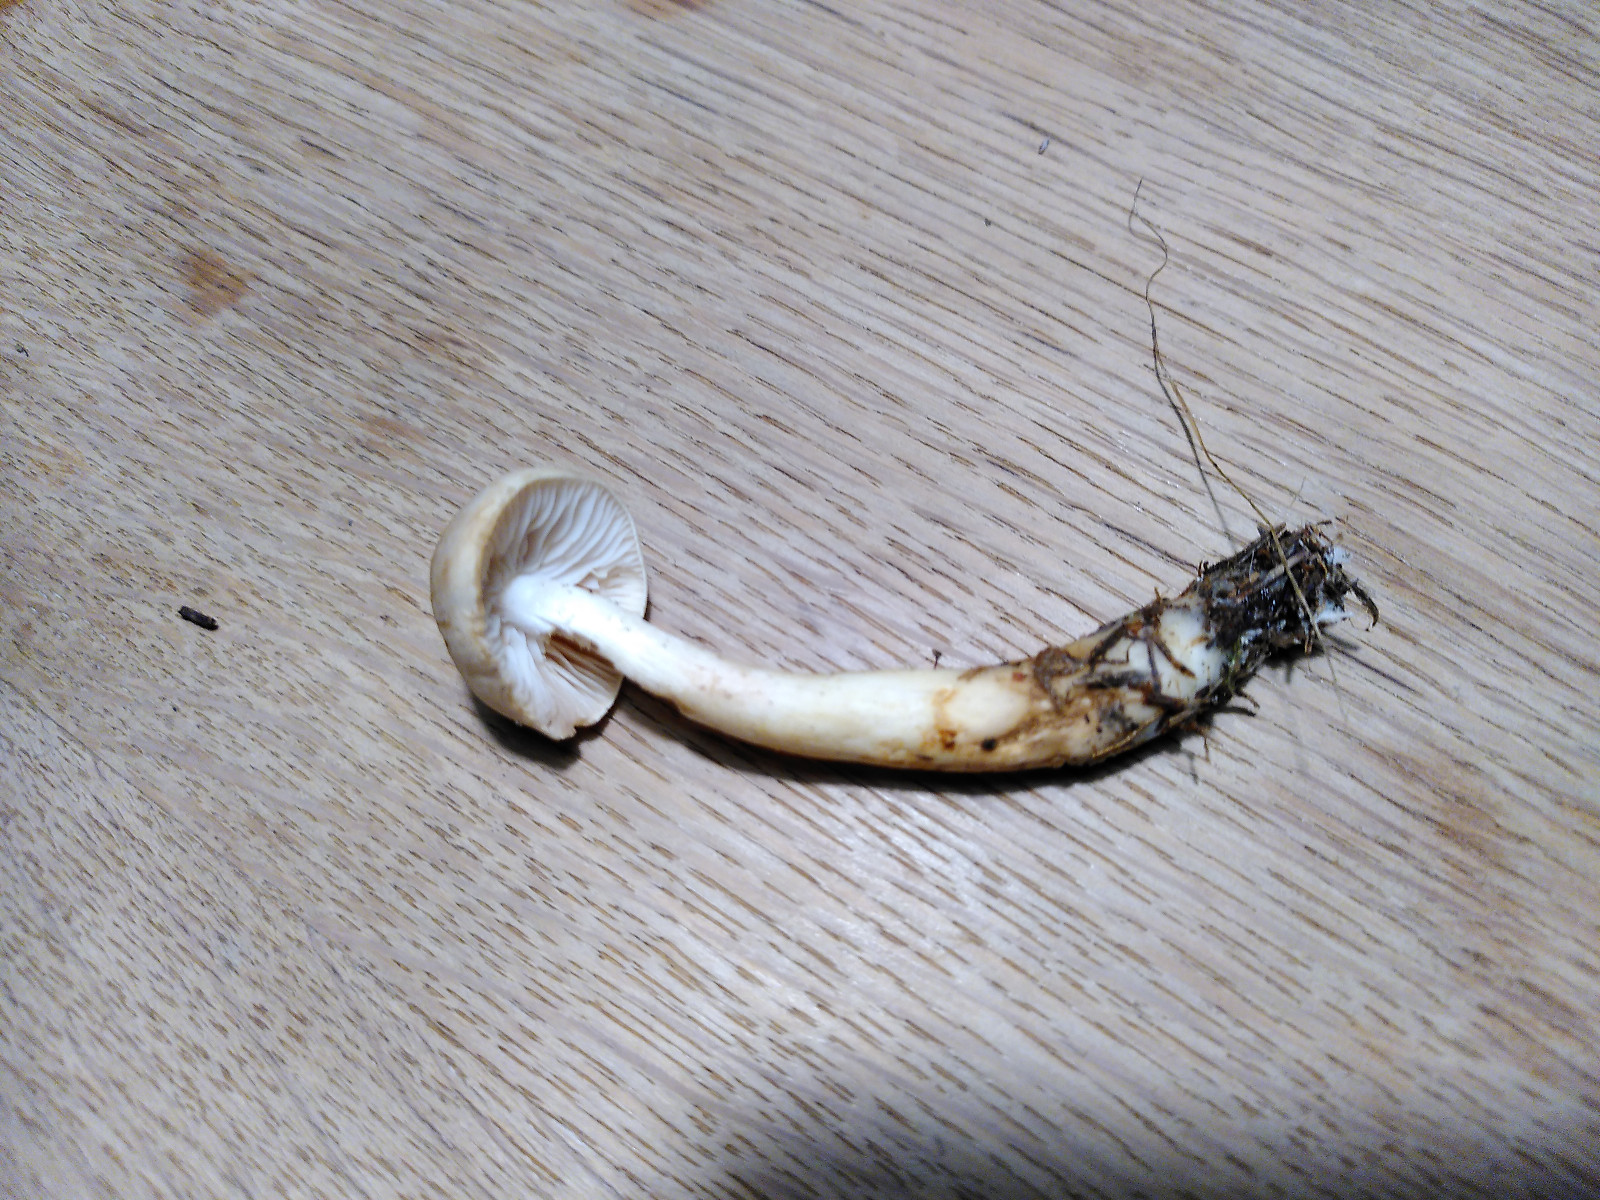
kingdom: Fungi
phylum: Basidiomycota
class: Agaricomycetes
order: Agaricales
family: Tricholomataceae
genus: Tricholoma
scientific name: Tricholoma inamoenum
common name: højstokket ridderhat
